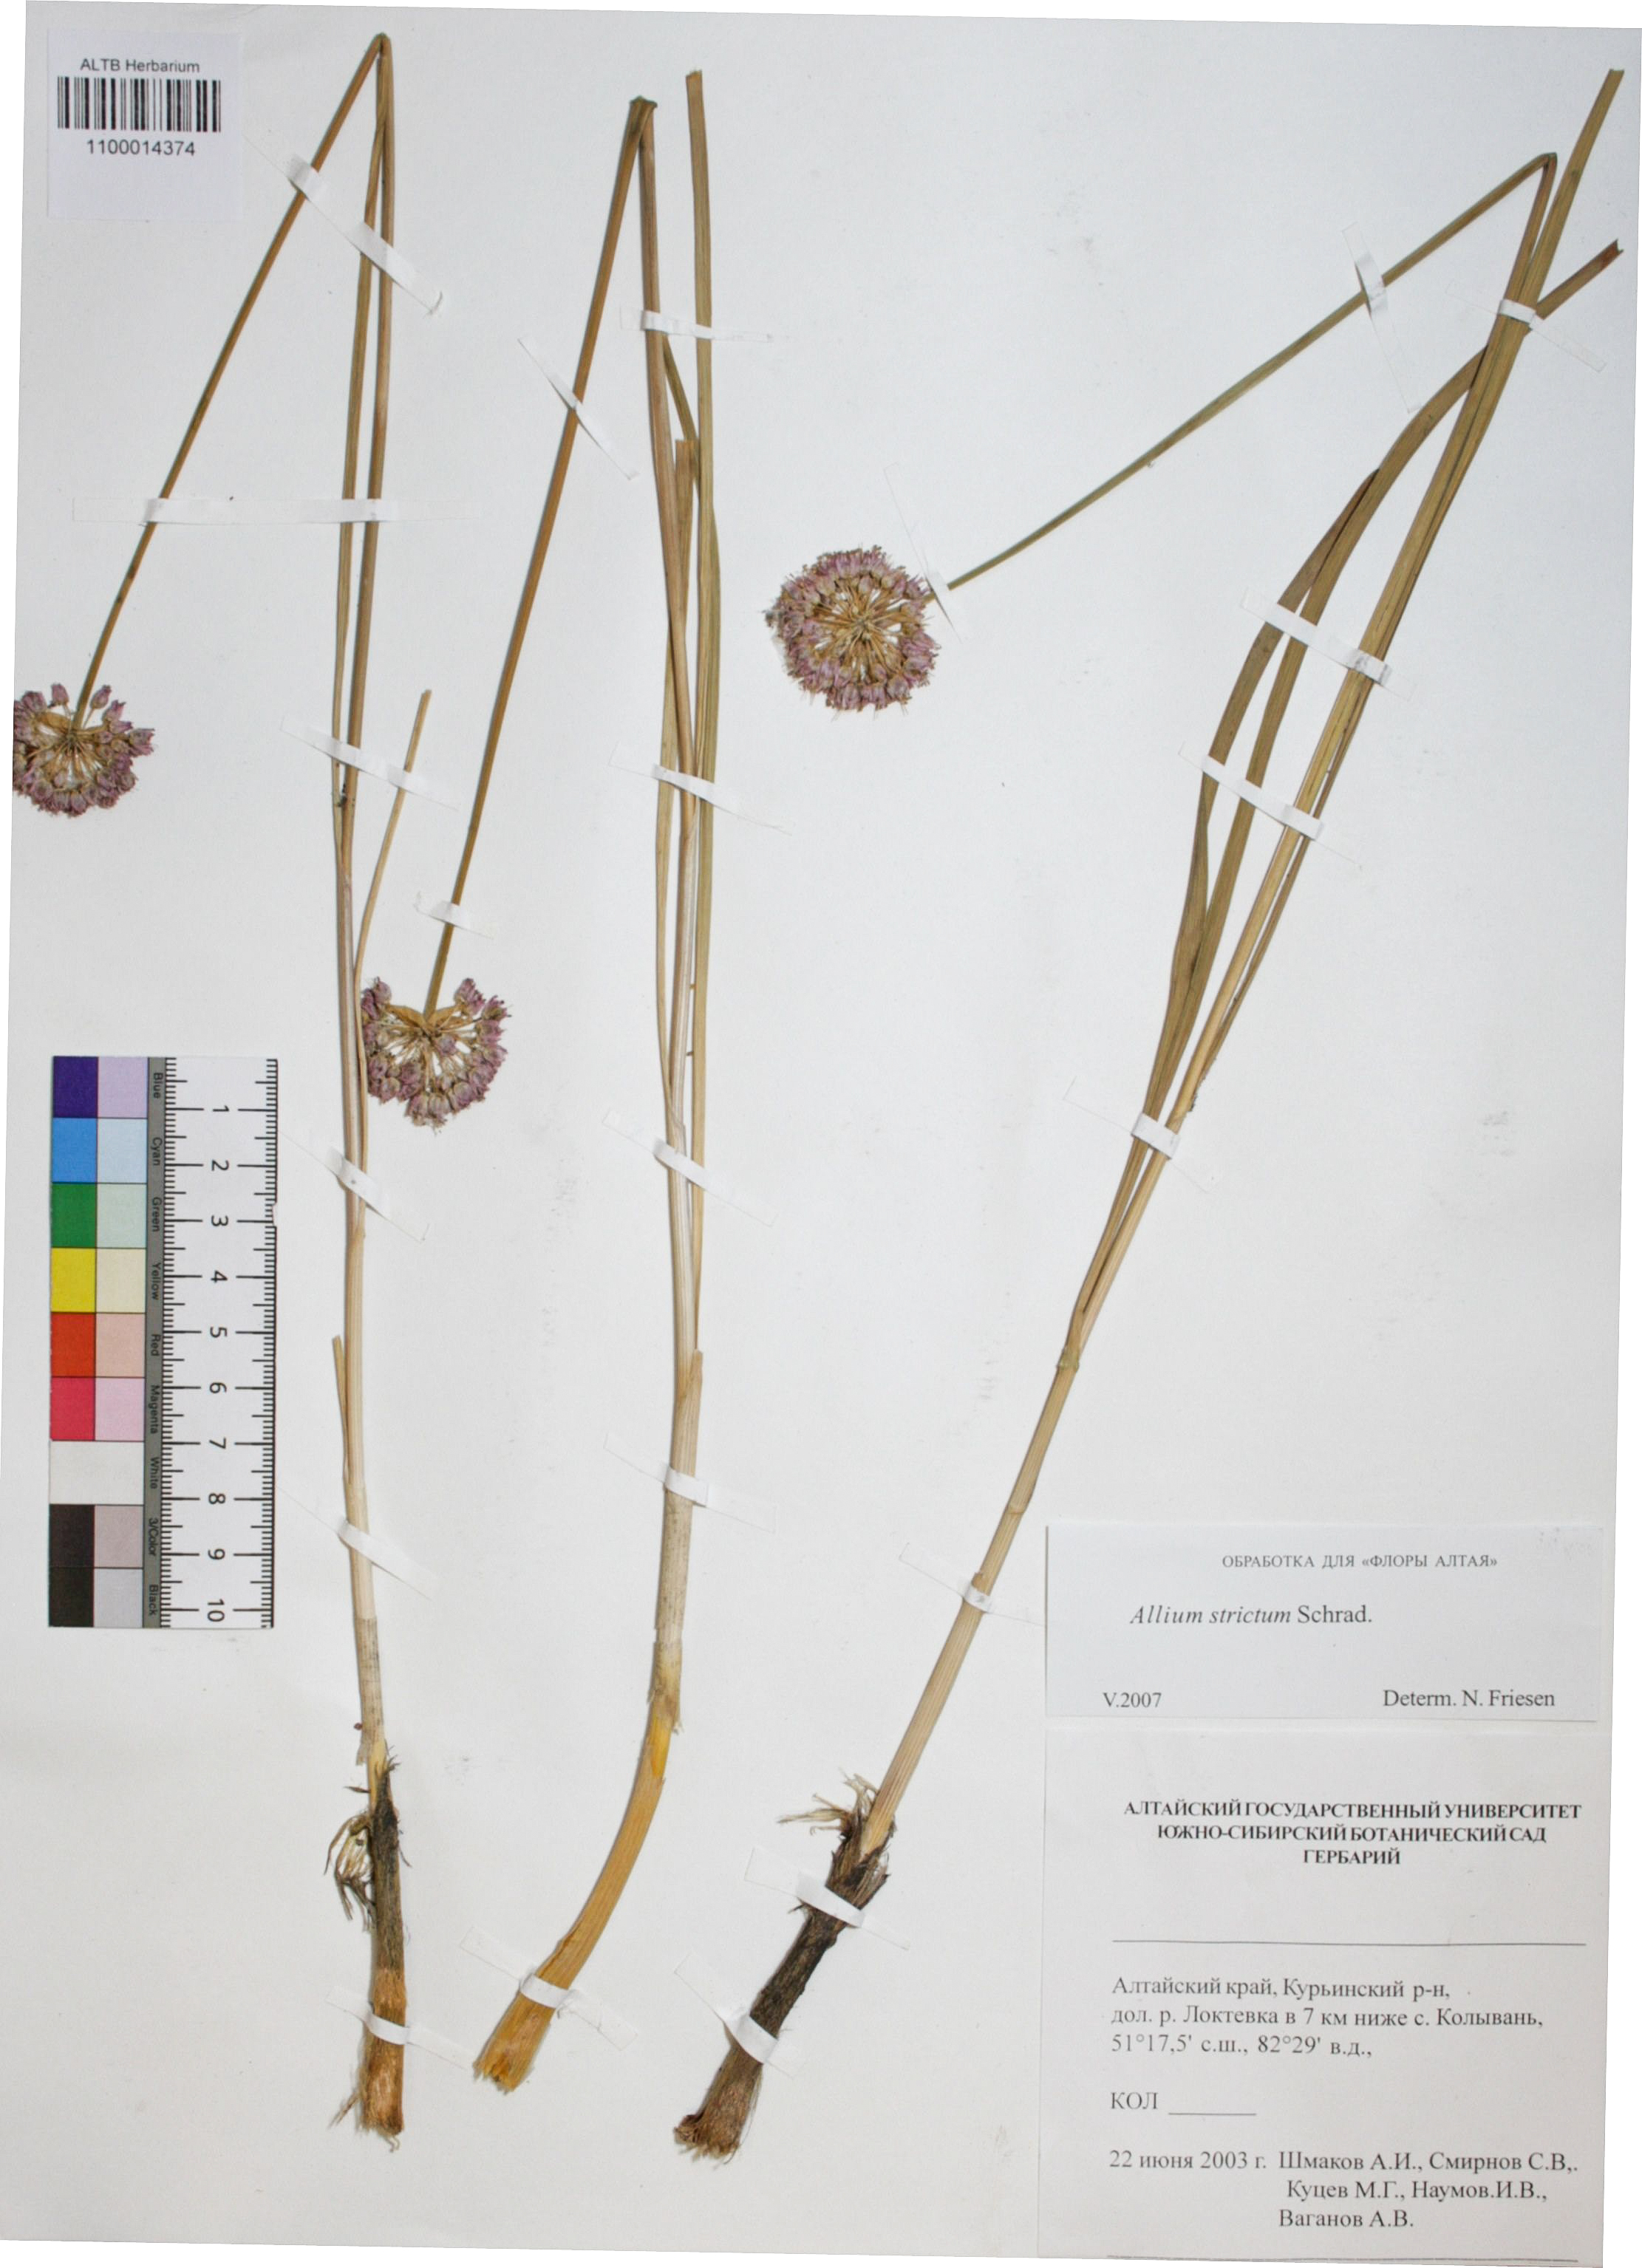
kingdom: Plantae
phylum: Tracheophyta
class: Liliopsida
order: Asparagales
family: Amaryllidaceae
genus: Allium
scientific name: Allium strictum
